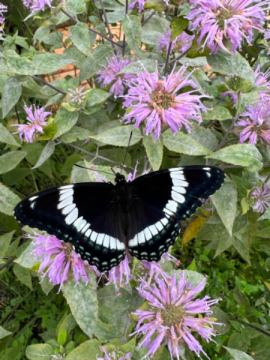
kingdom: Animalia
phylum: Arthropoda
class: Insecta
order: Lepidoptera
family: Nymphalidae
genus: Limenitis
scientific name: Limenitis arthemis
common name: Red-spotted Admiral
